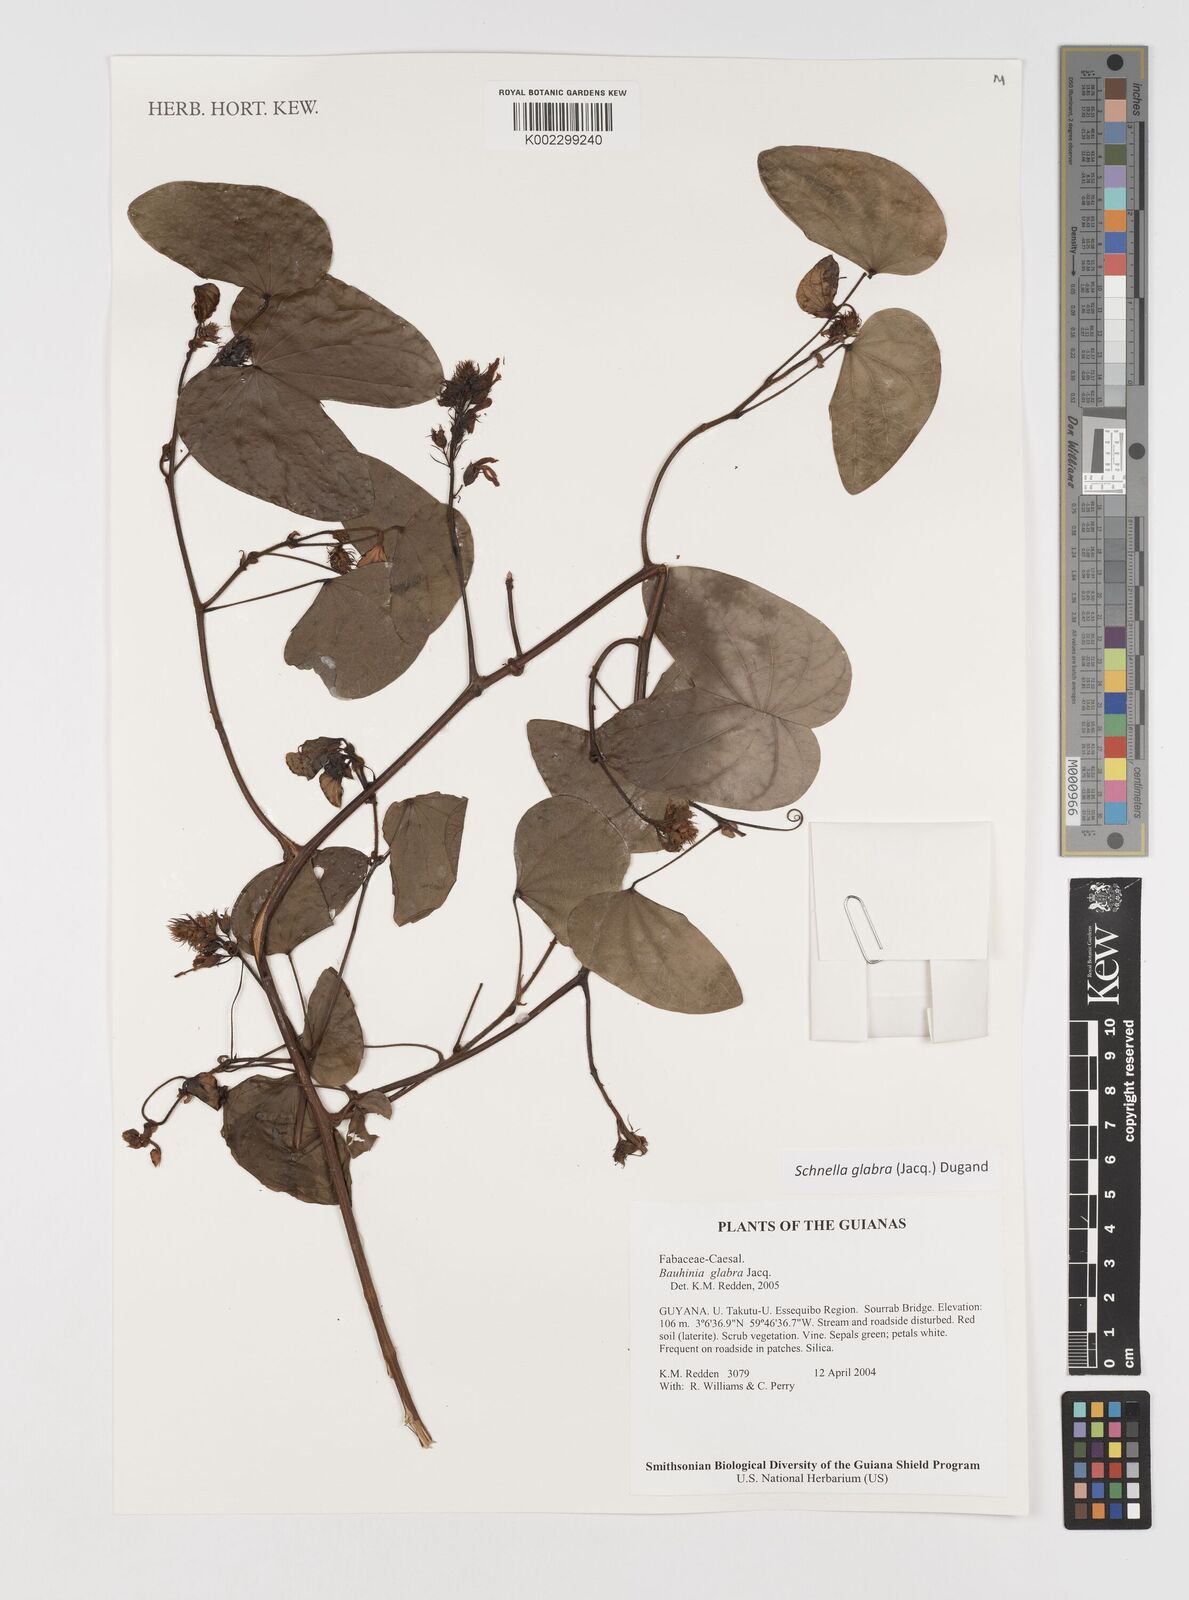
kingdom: Plantae
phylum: Tracheophyta
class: Magnoliopsida
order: Fabales
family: Fabaceae
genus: Schnella
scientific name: Schnella glabra
